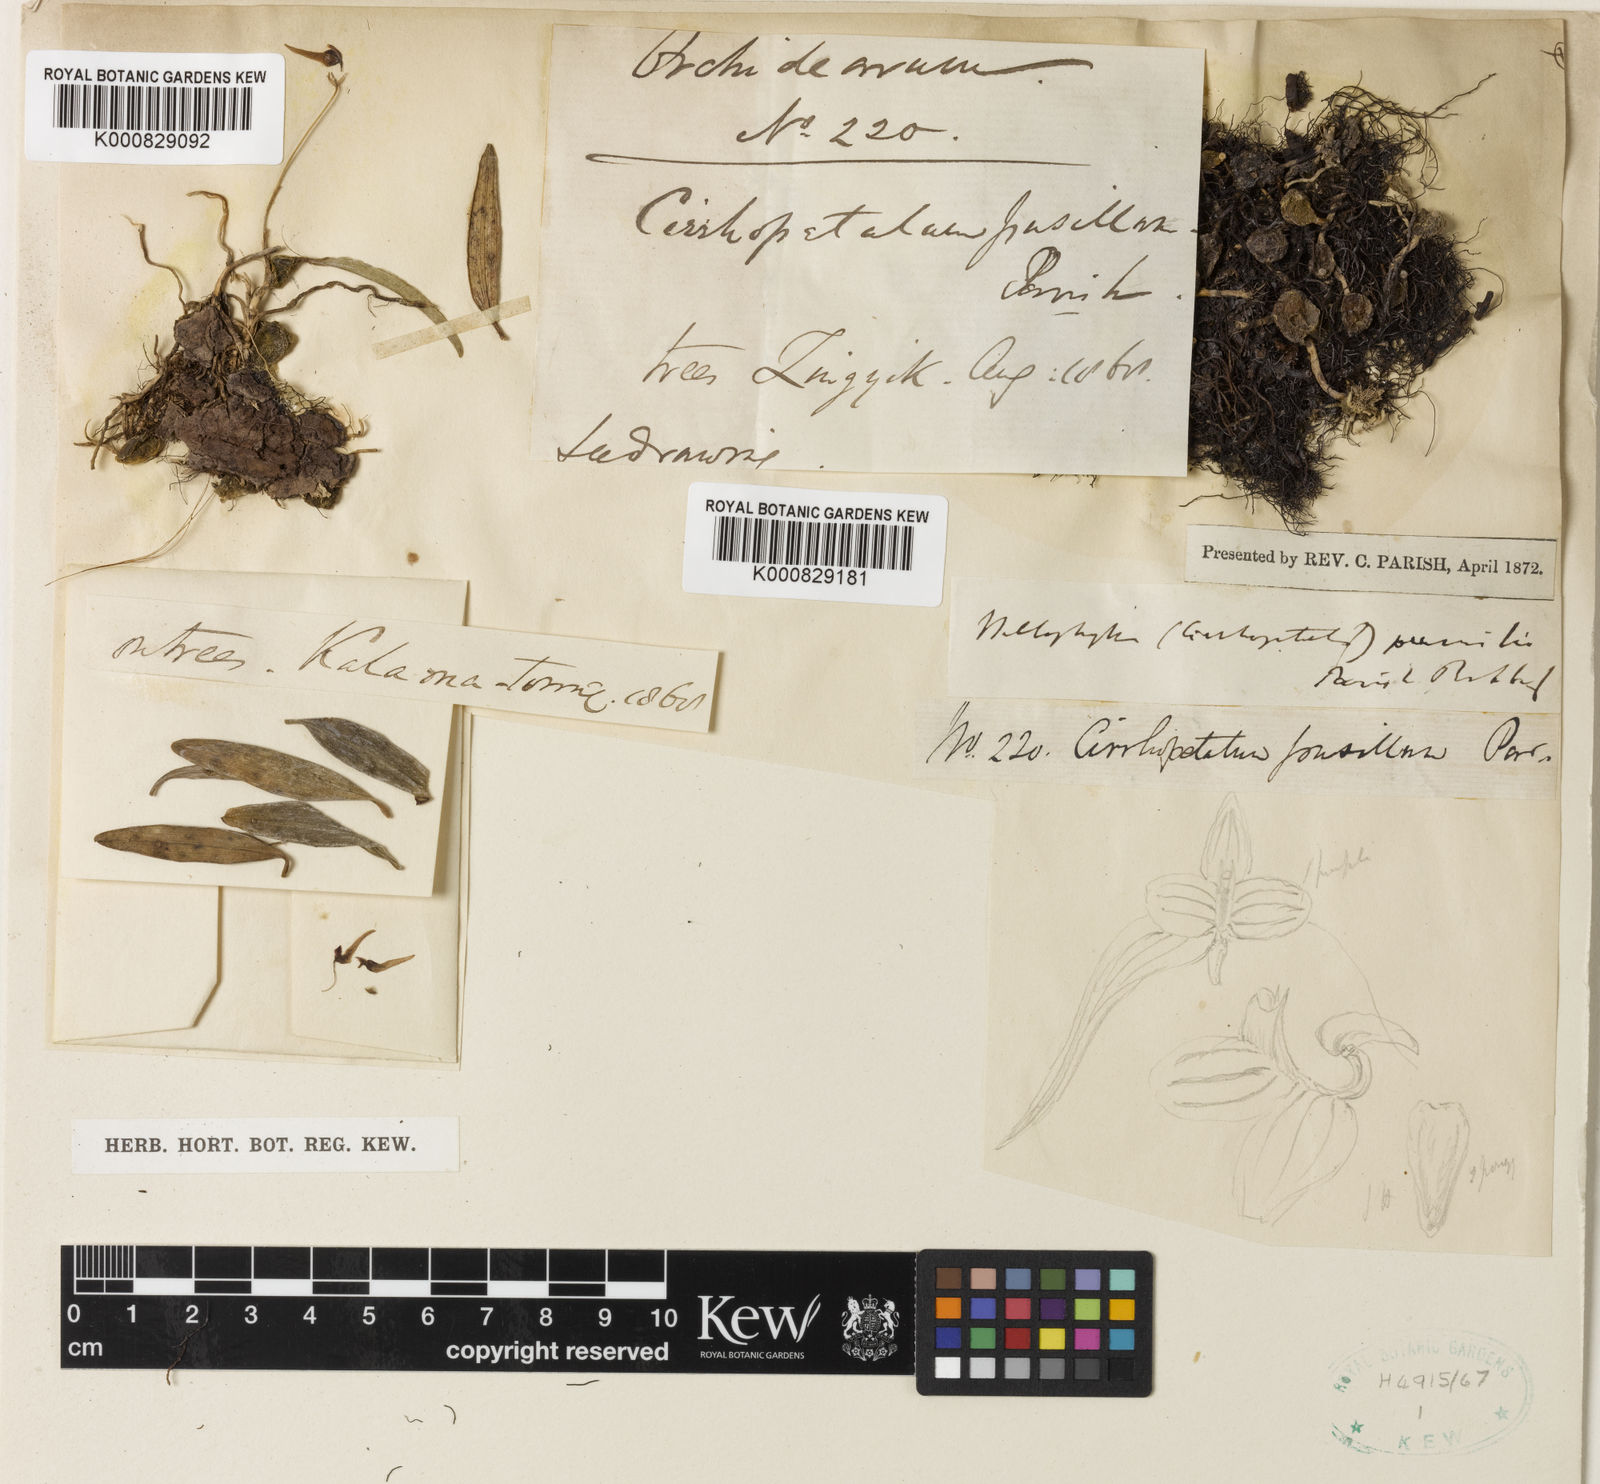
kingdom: Plantae
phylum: Tracheophyta
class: Liliopsida
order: Asparagales
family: Orchidaceae
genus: Bulbophyllum
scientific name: Bulbophyllum pumilio
